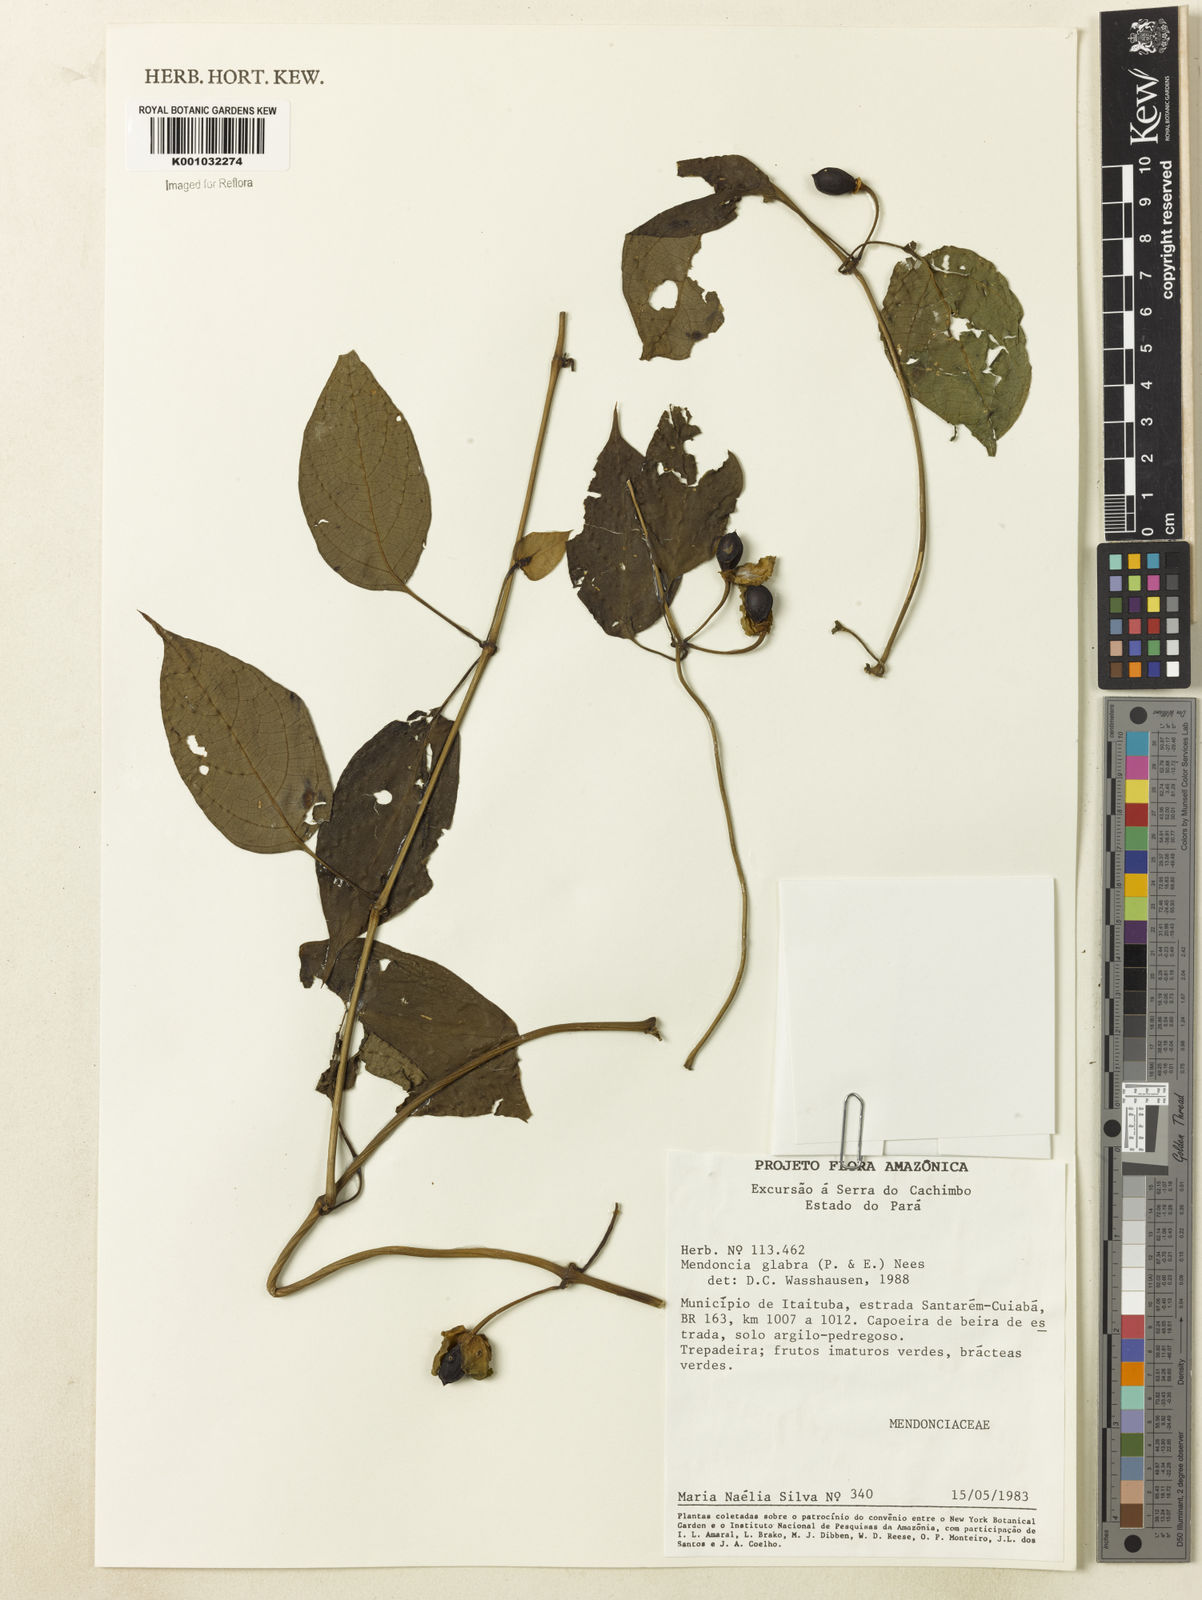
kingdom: Plantae
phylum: Tracheophyta
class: Magnoliopsida
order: Lamiales
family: Acanthaceae
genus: Mendoncia
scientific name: Mendoncia
